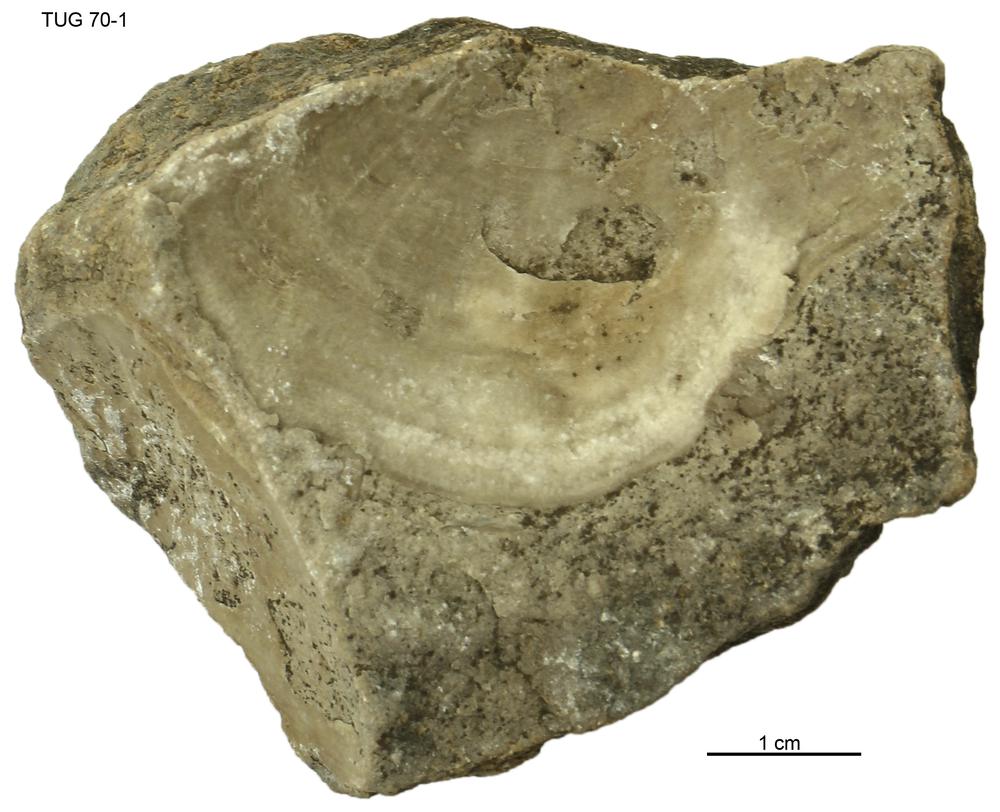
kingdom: Animalia
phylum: Mollusca
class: Bivalvia
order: Lucinida
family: Lucinidae
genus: Illionia
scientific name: Illionia Lucina prisca
